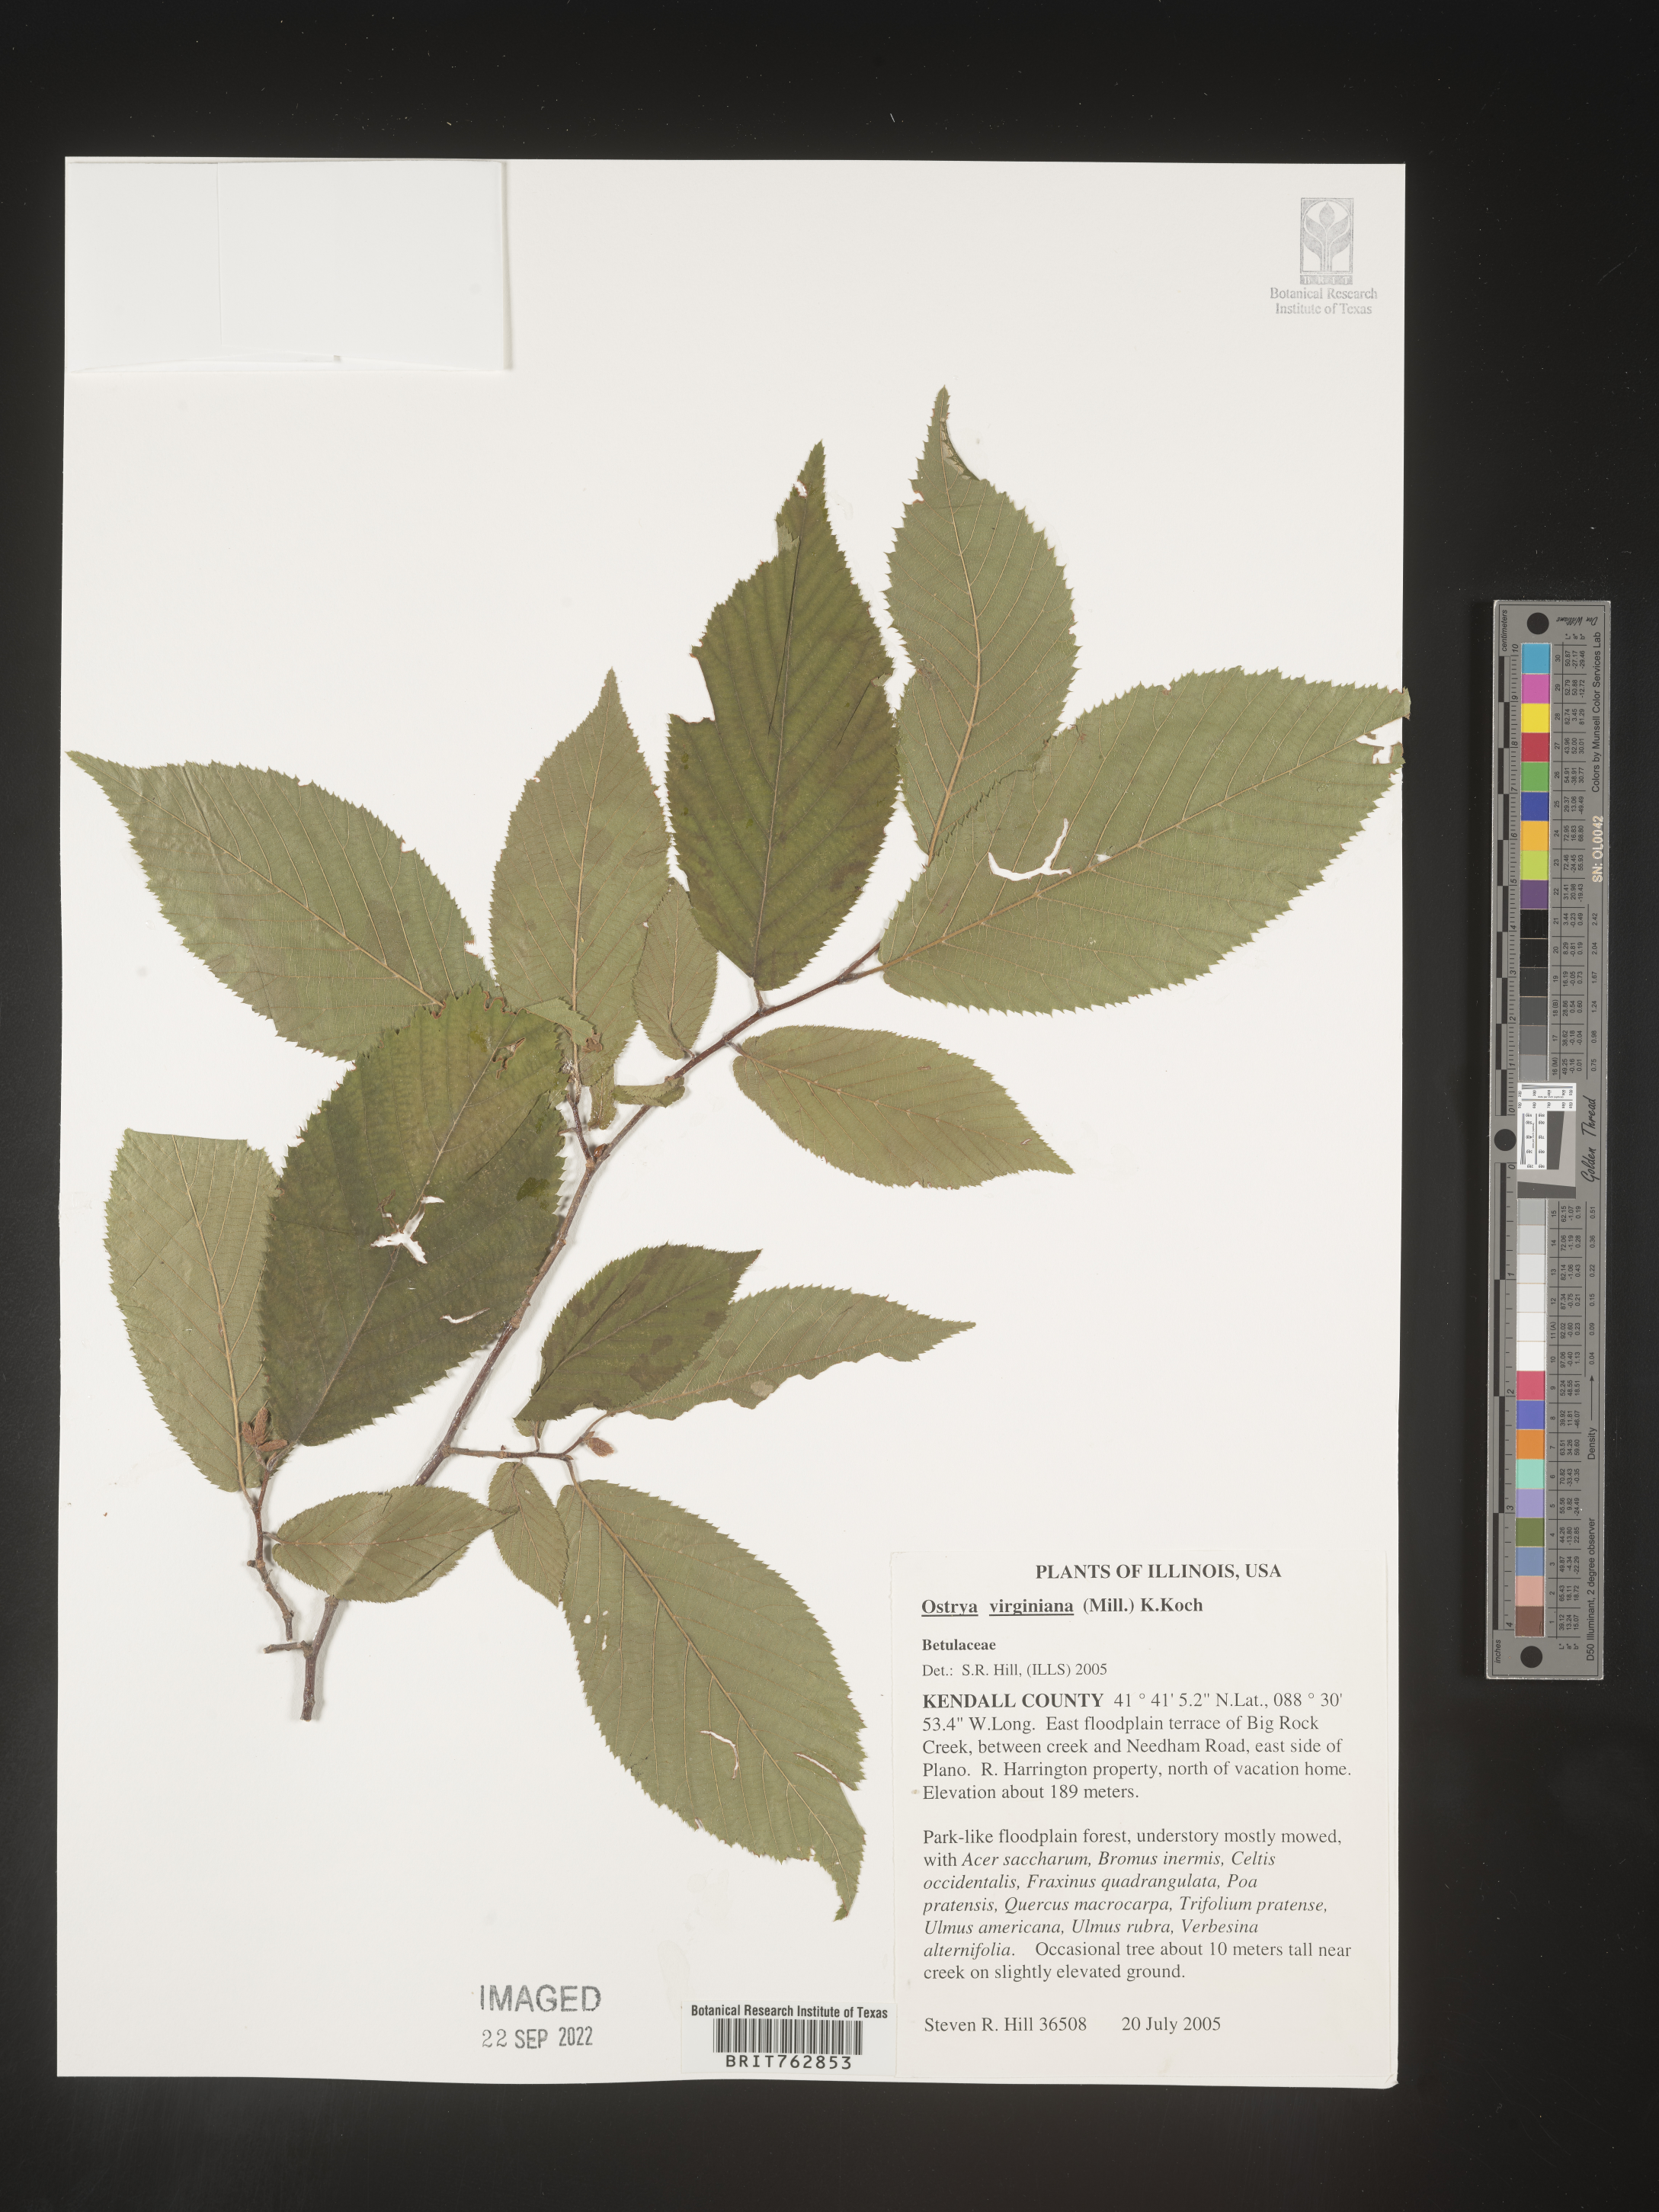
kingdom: Plantae
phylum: Tracheophyta
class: Magnoliopsida
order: Fagales
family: Betulaceae
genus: Ostrya
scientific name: Ostrya virginiana
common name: Ironwood
